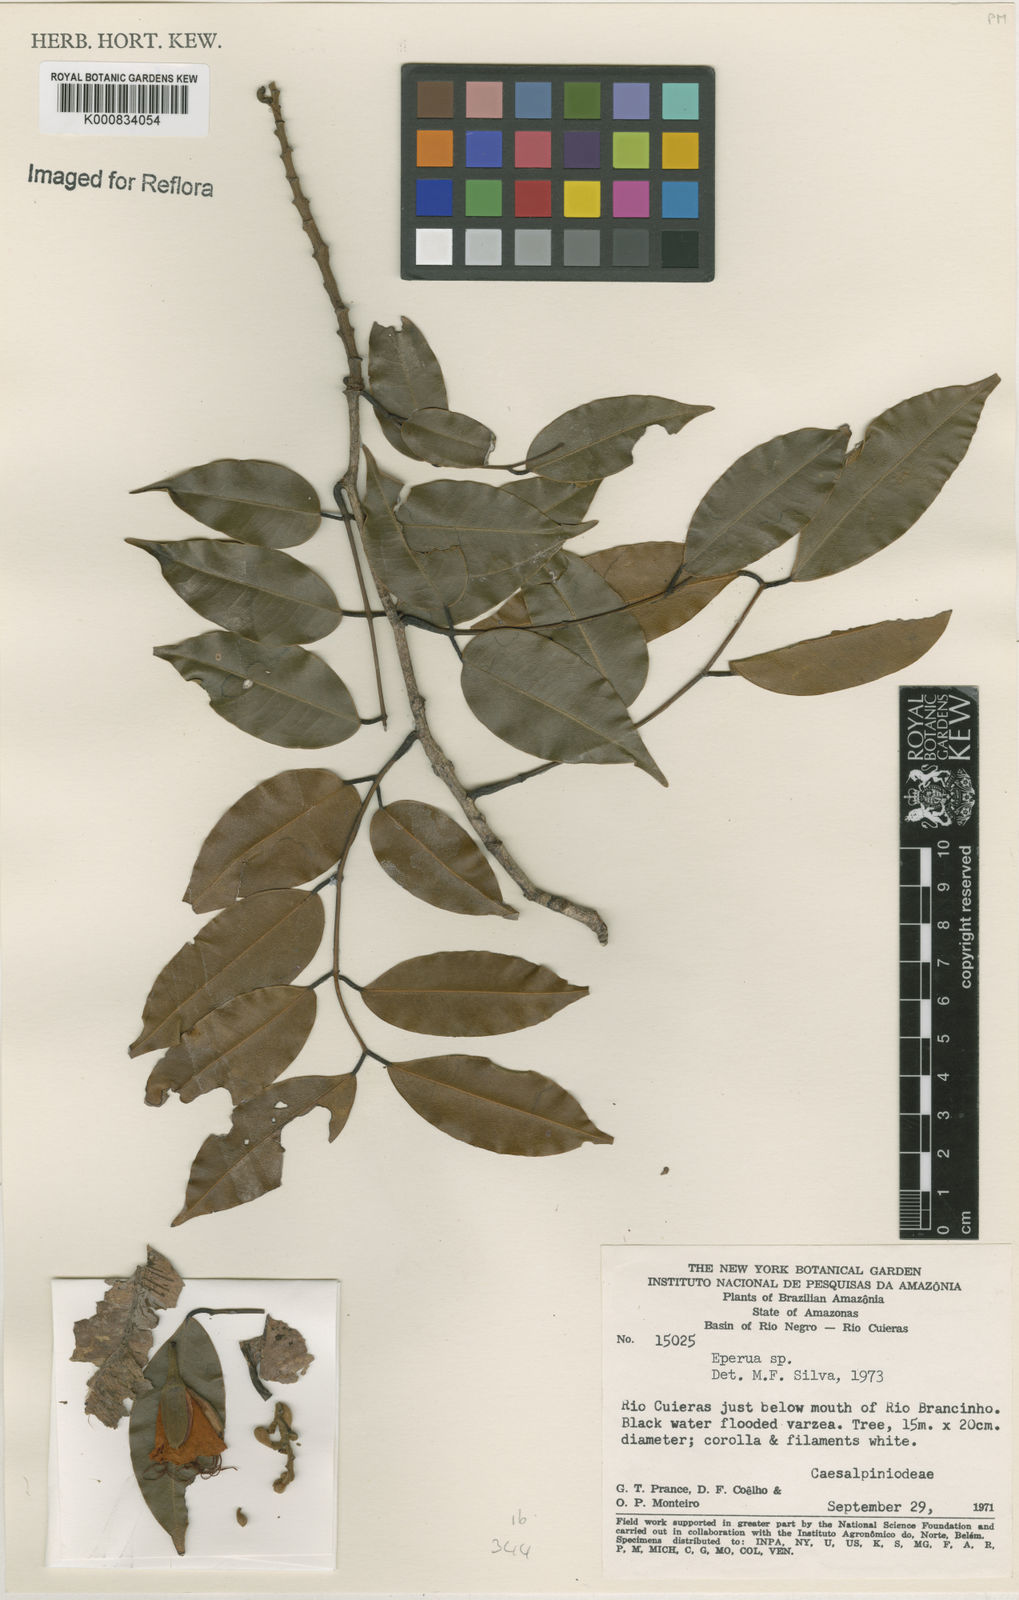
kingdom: Plantae
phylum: Tracheophyta
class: Magnoliopsida
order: Fabales
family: Fabaceae
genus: Eperua
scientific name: Eperua
